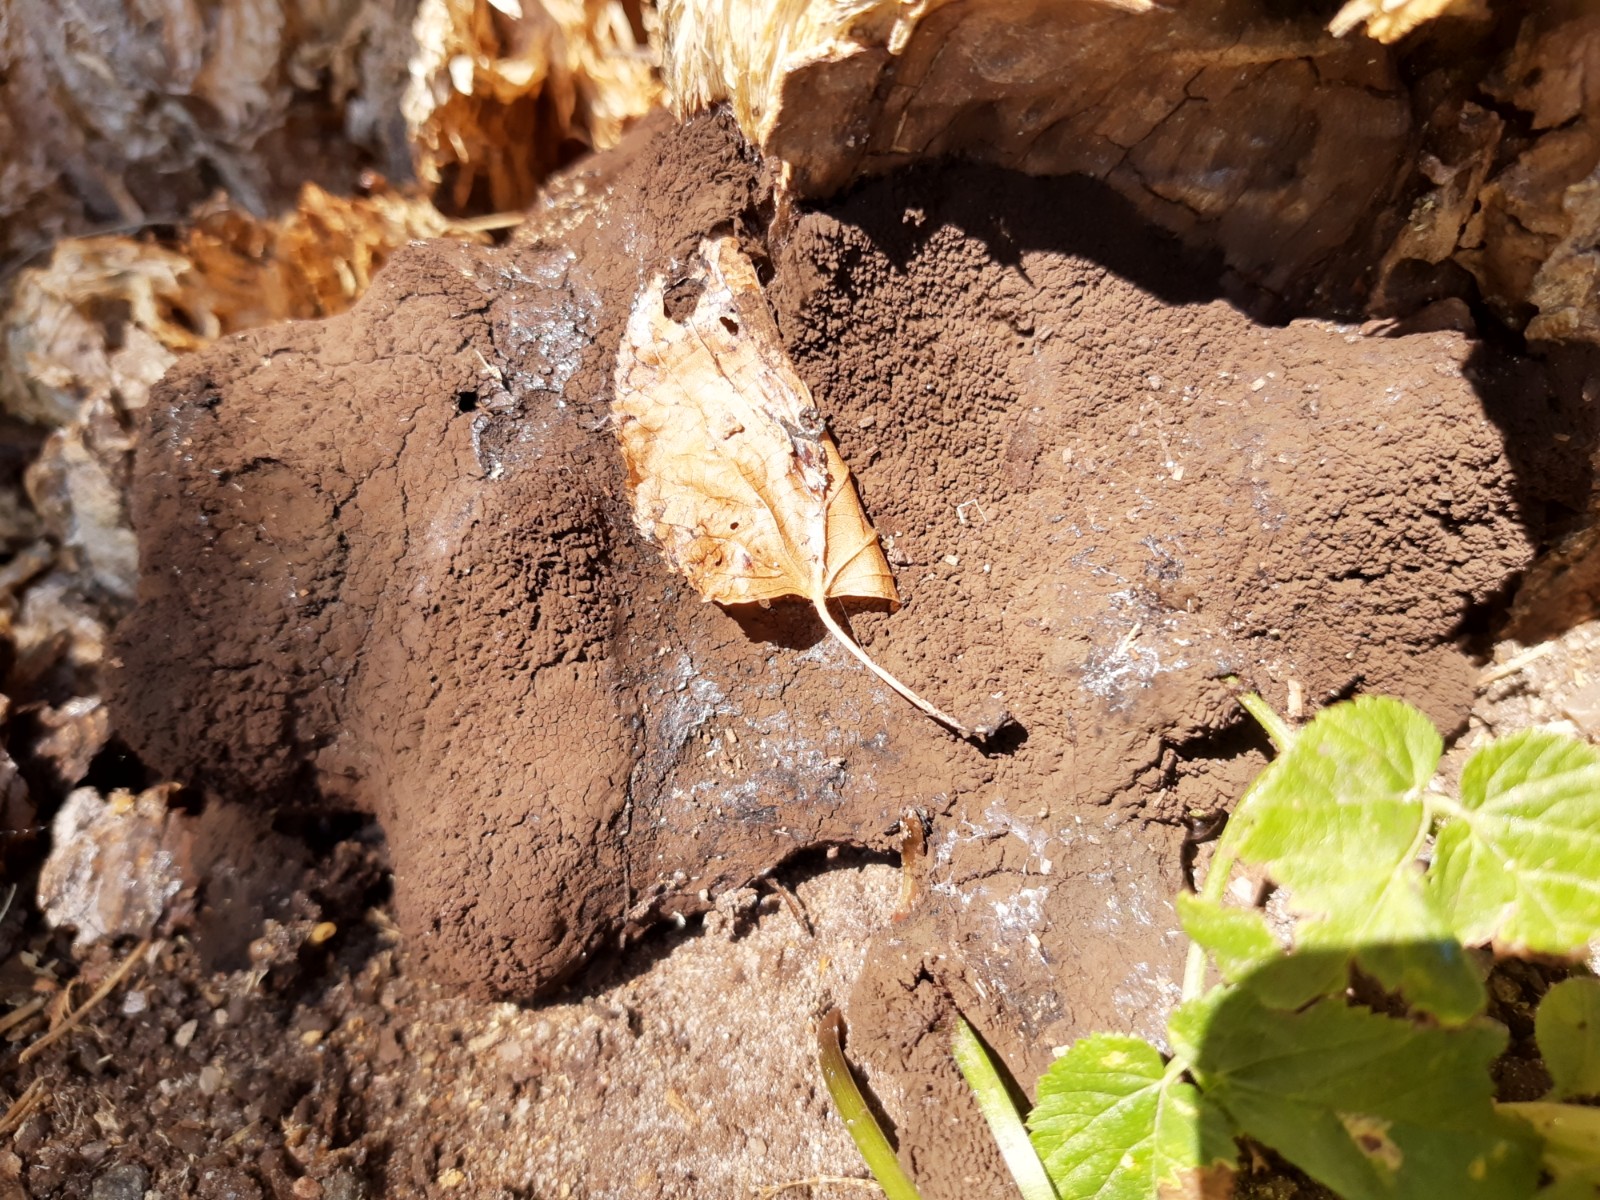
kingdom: Protozoa
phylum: Mycetozoa
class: Myxomycetes
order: Stemonitidales
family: Stemonitidaceae
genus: Symphytocarpus
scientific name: Symphytocarpus amaurochaetoides
